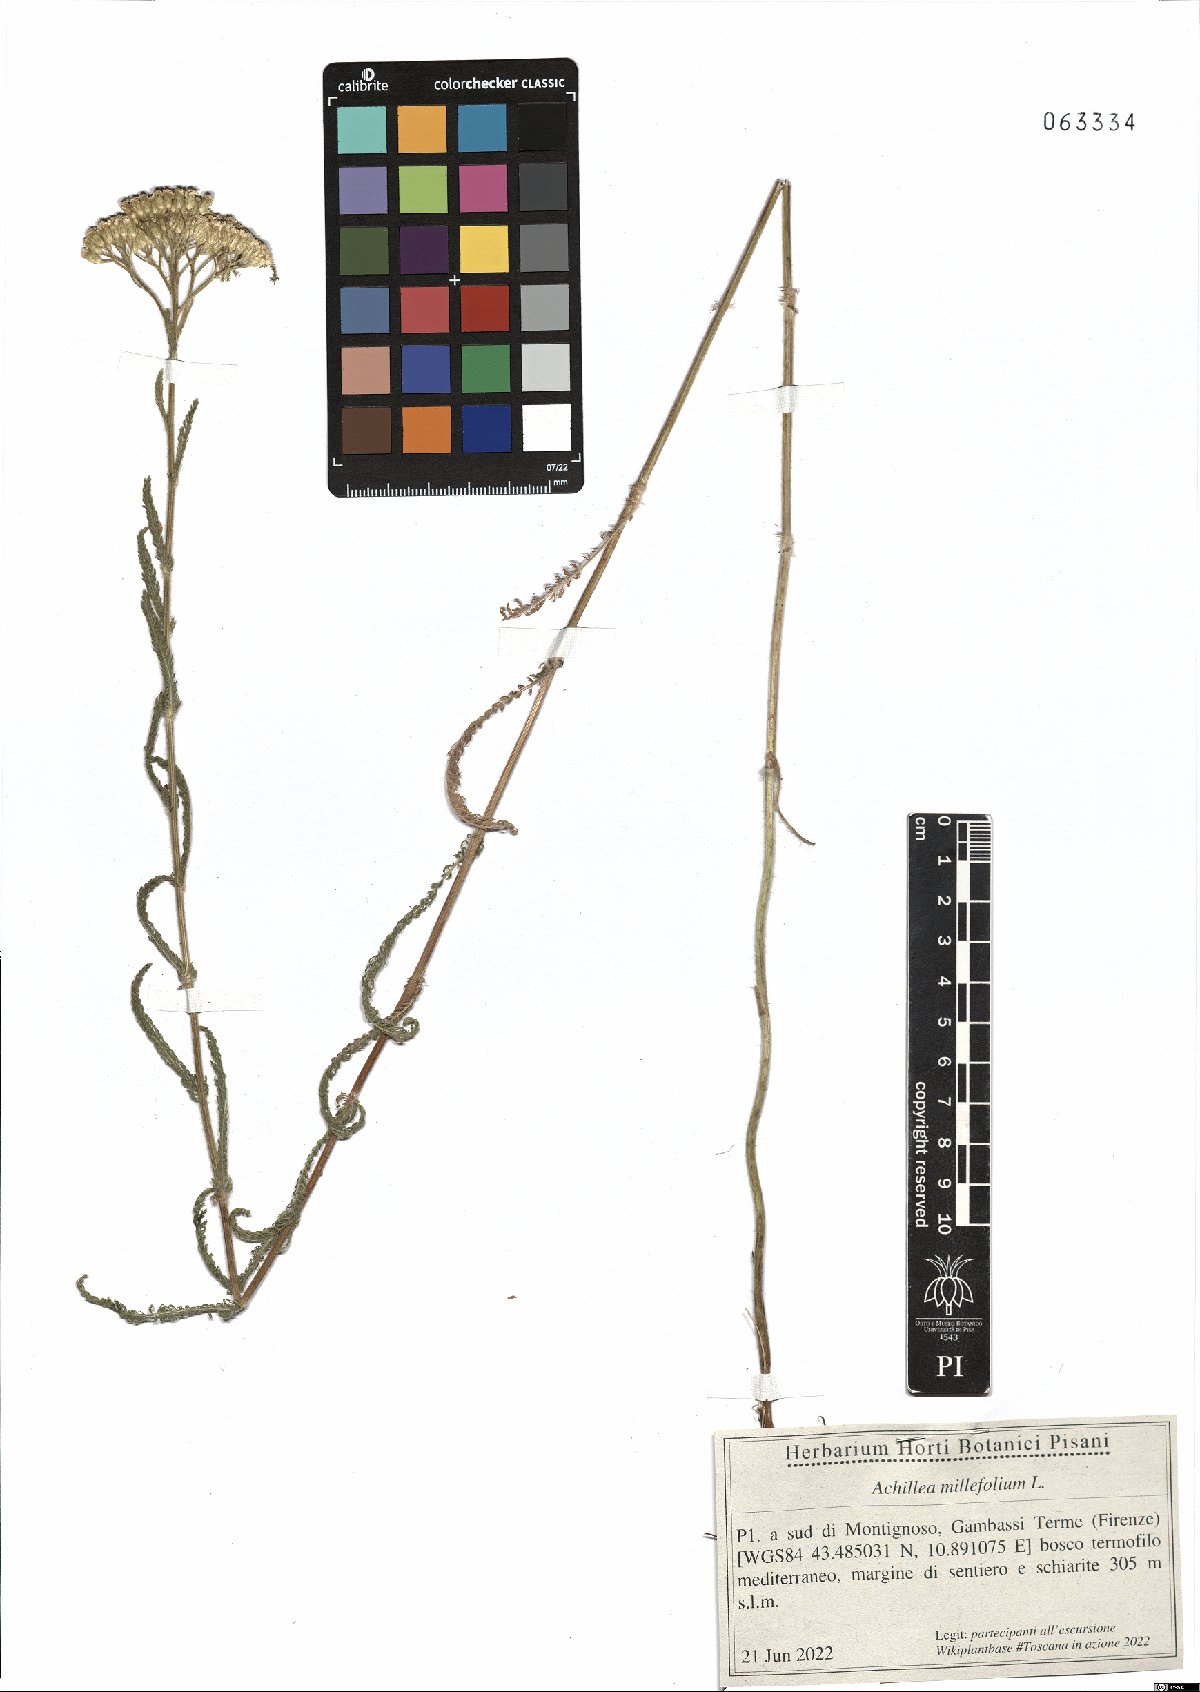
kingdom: Plantae
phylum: Tracheophyta
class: Magnoliopsida
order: Asterales
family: Asteraceae
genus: Achillea
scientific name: Achillea millefolium
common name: Yarrow
